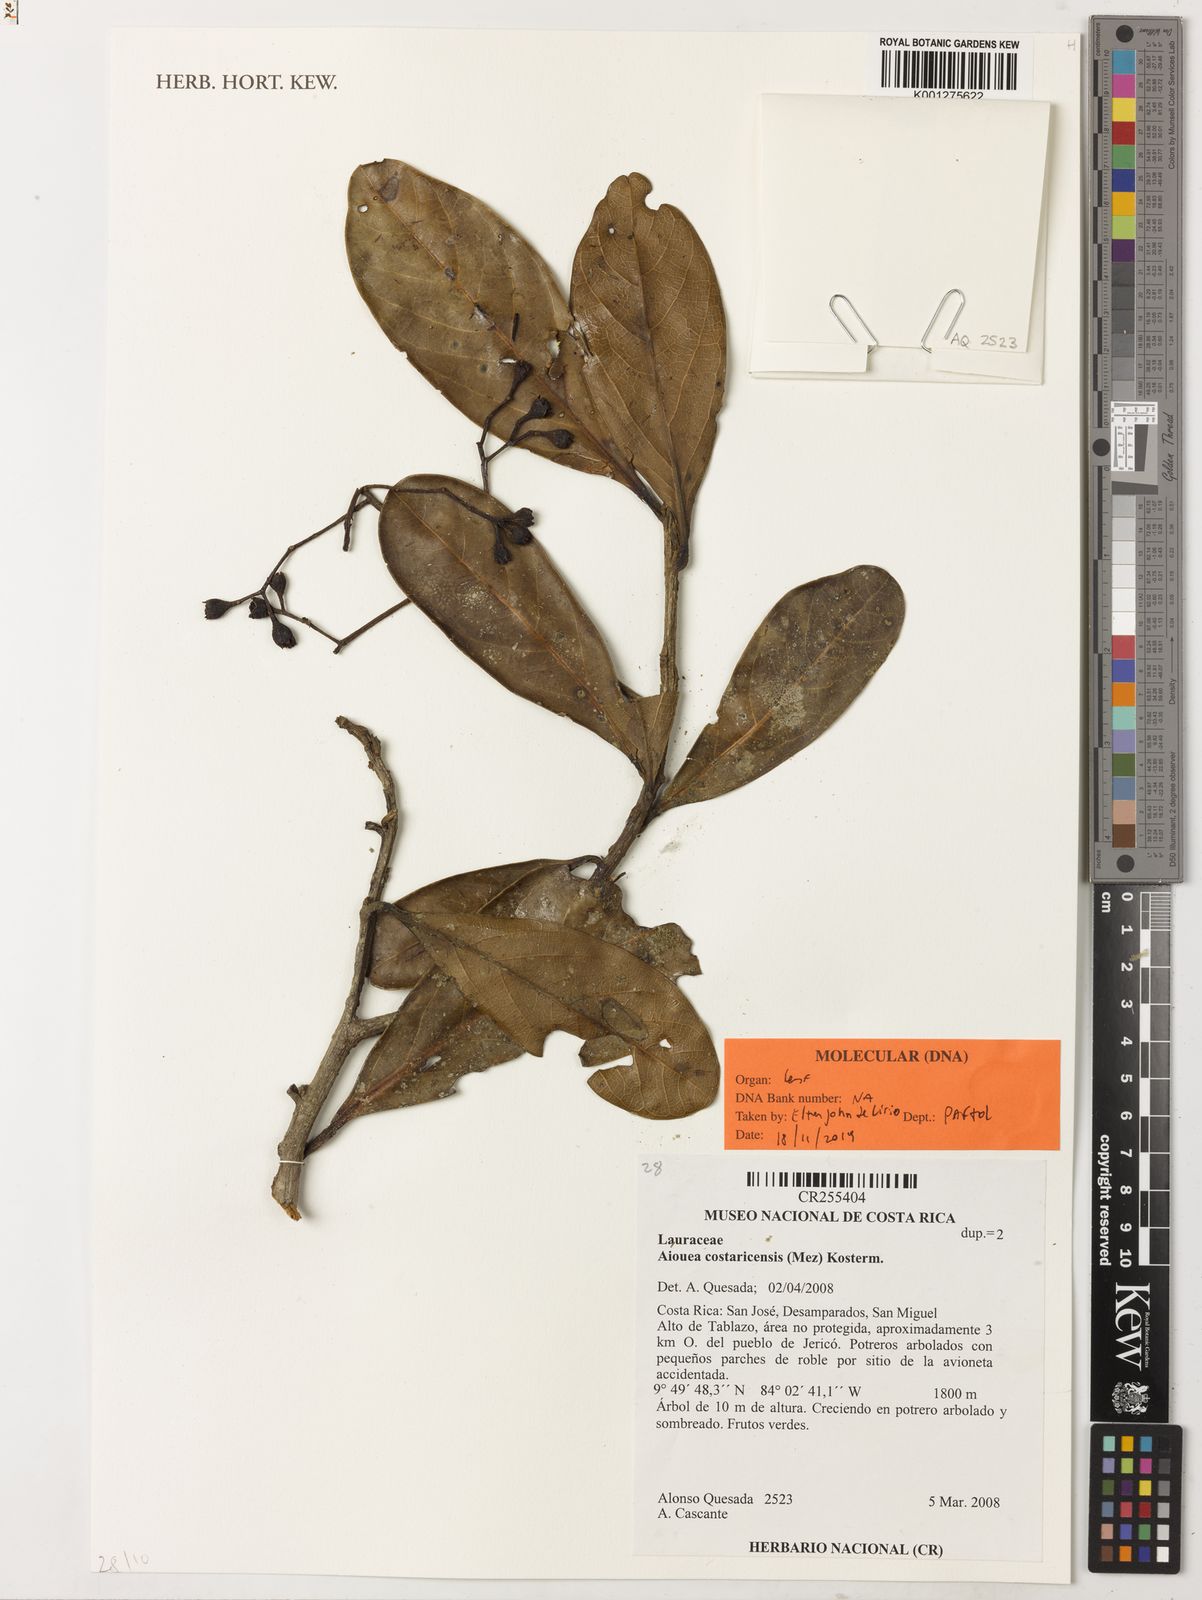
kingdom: Plantae
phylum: Tracheophyta
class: Magnoliopsida
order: Laurales
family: Lauraceae
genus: Ocotea
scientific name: Ocotea insularis
